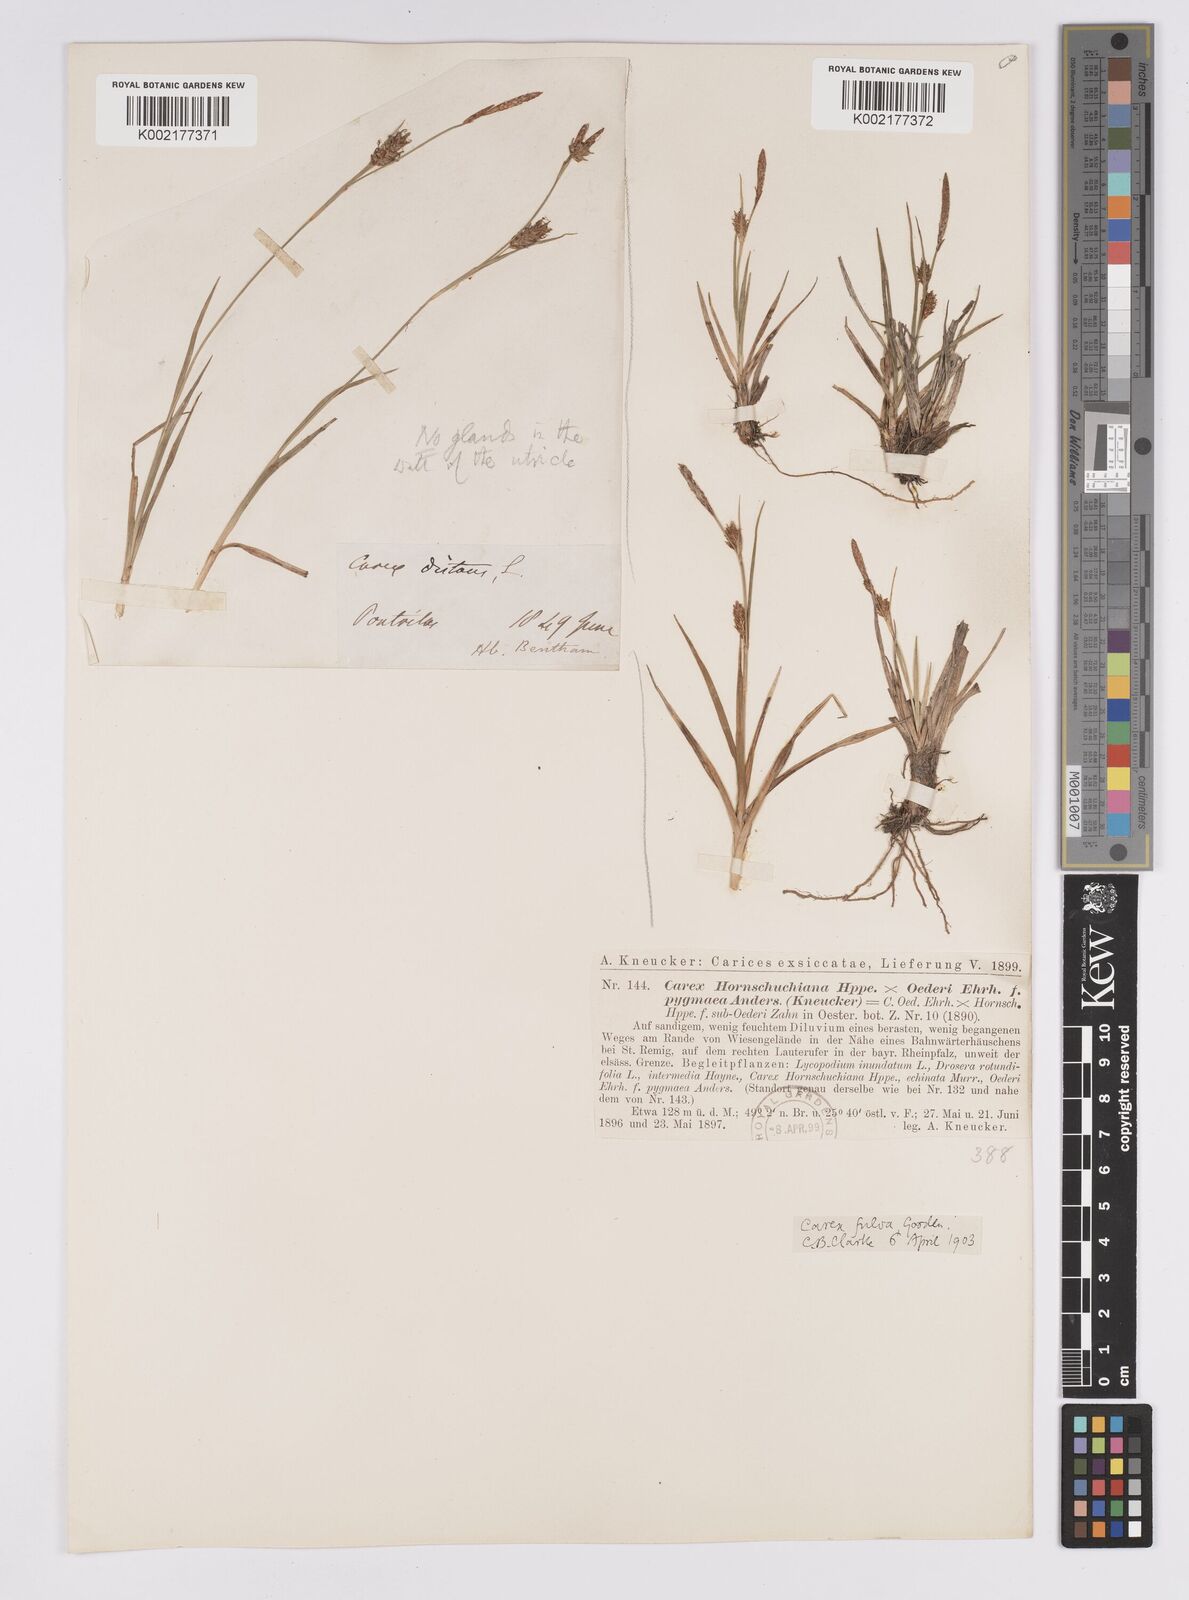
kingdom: Plantae
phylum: Tracheophyta
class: Liliopsida
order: Poales
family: Cyperaceae
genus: Carex
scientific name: Carex hostiana
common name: Tawny sedge
